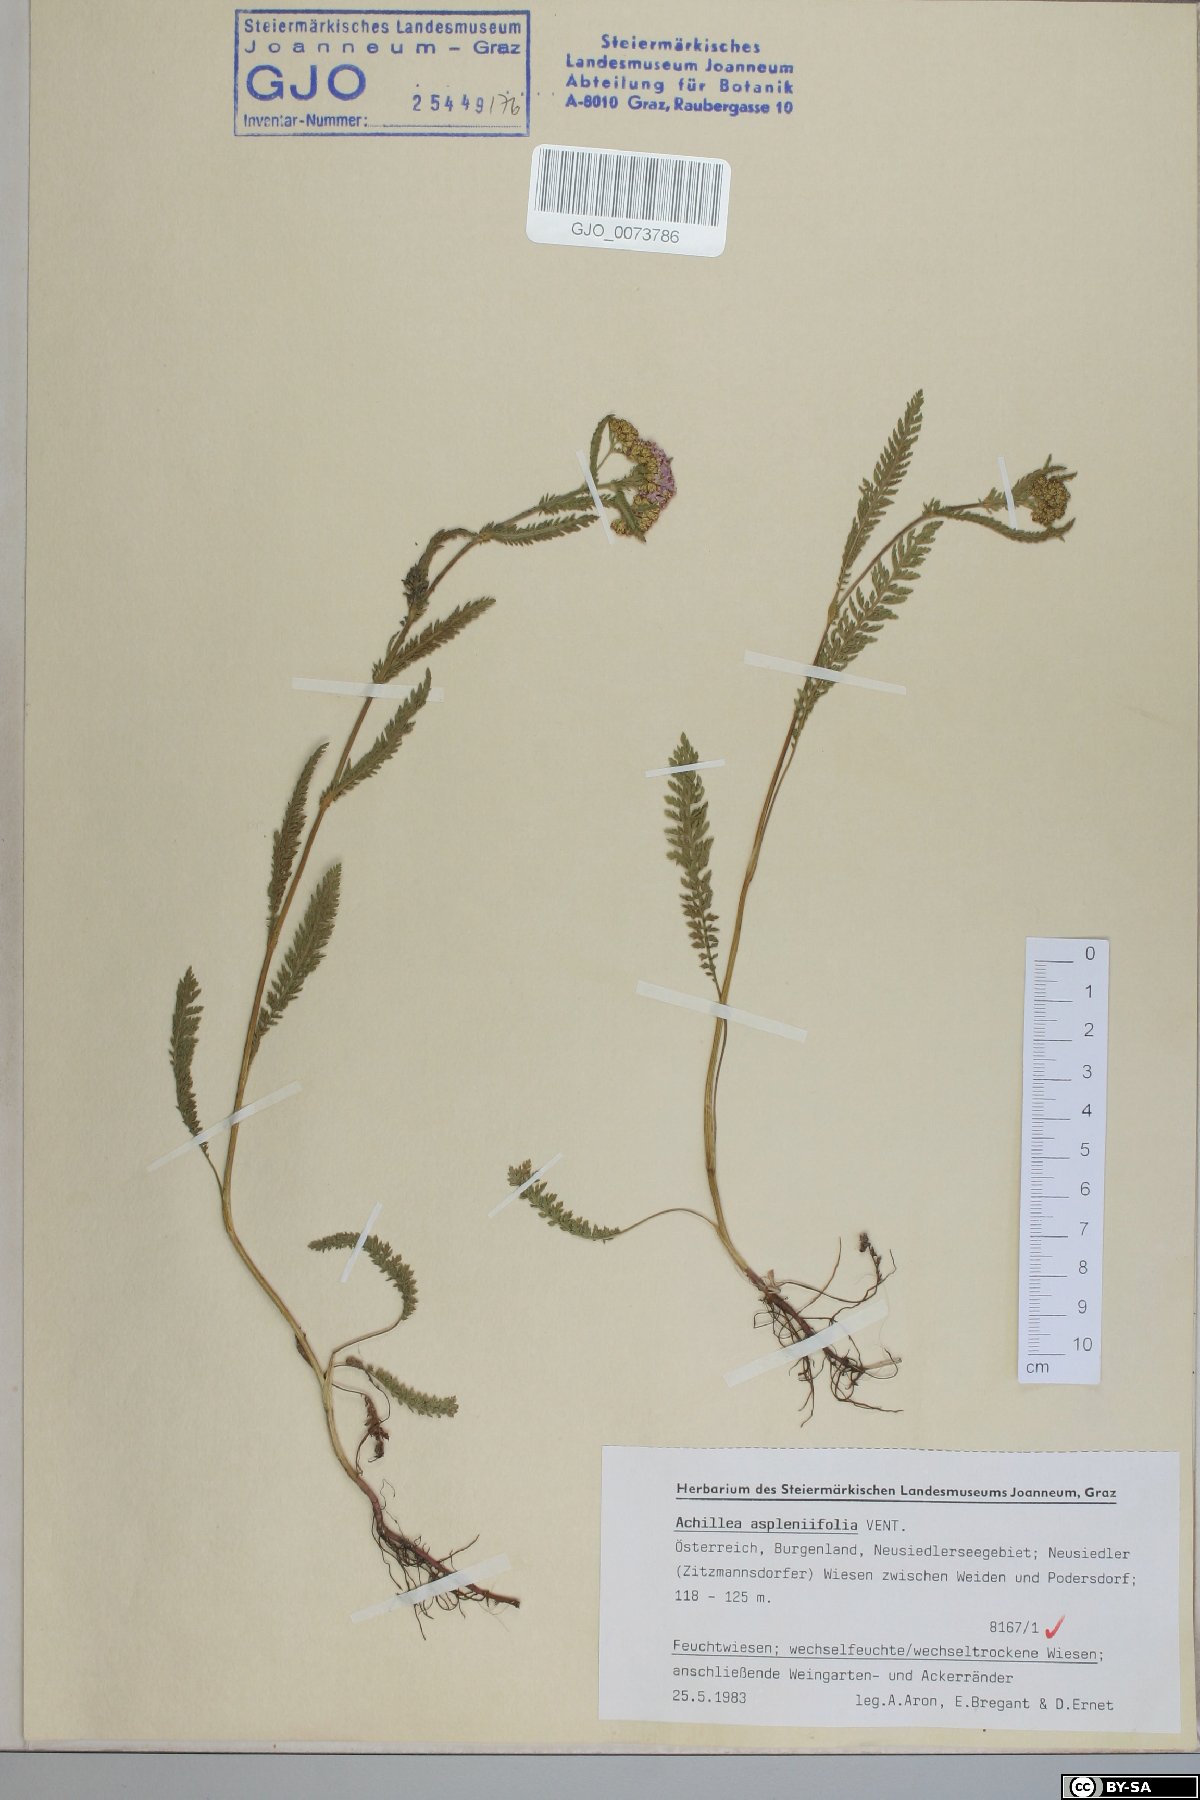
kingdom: Plantae
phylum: Tracheophyta
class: Magnoliopsida
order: Asterales
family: Asteraceae
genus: Achillea
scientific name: Achillea aspleniifolia
